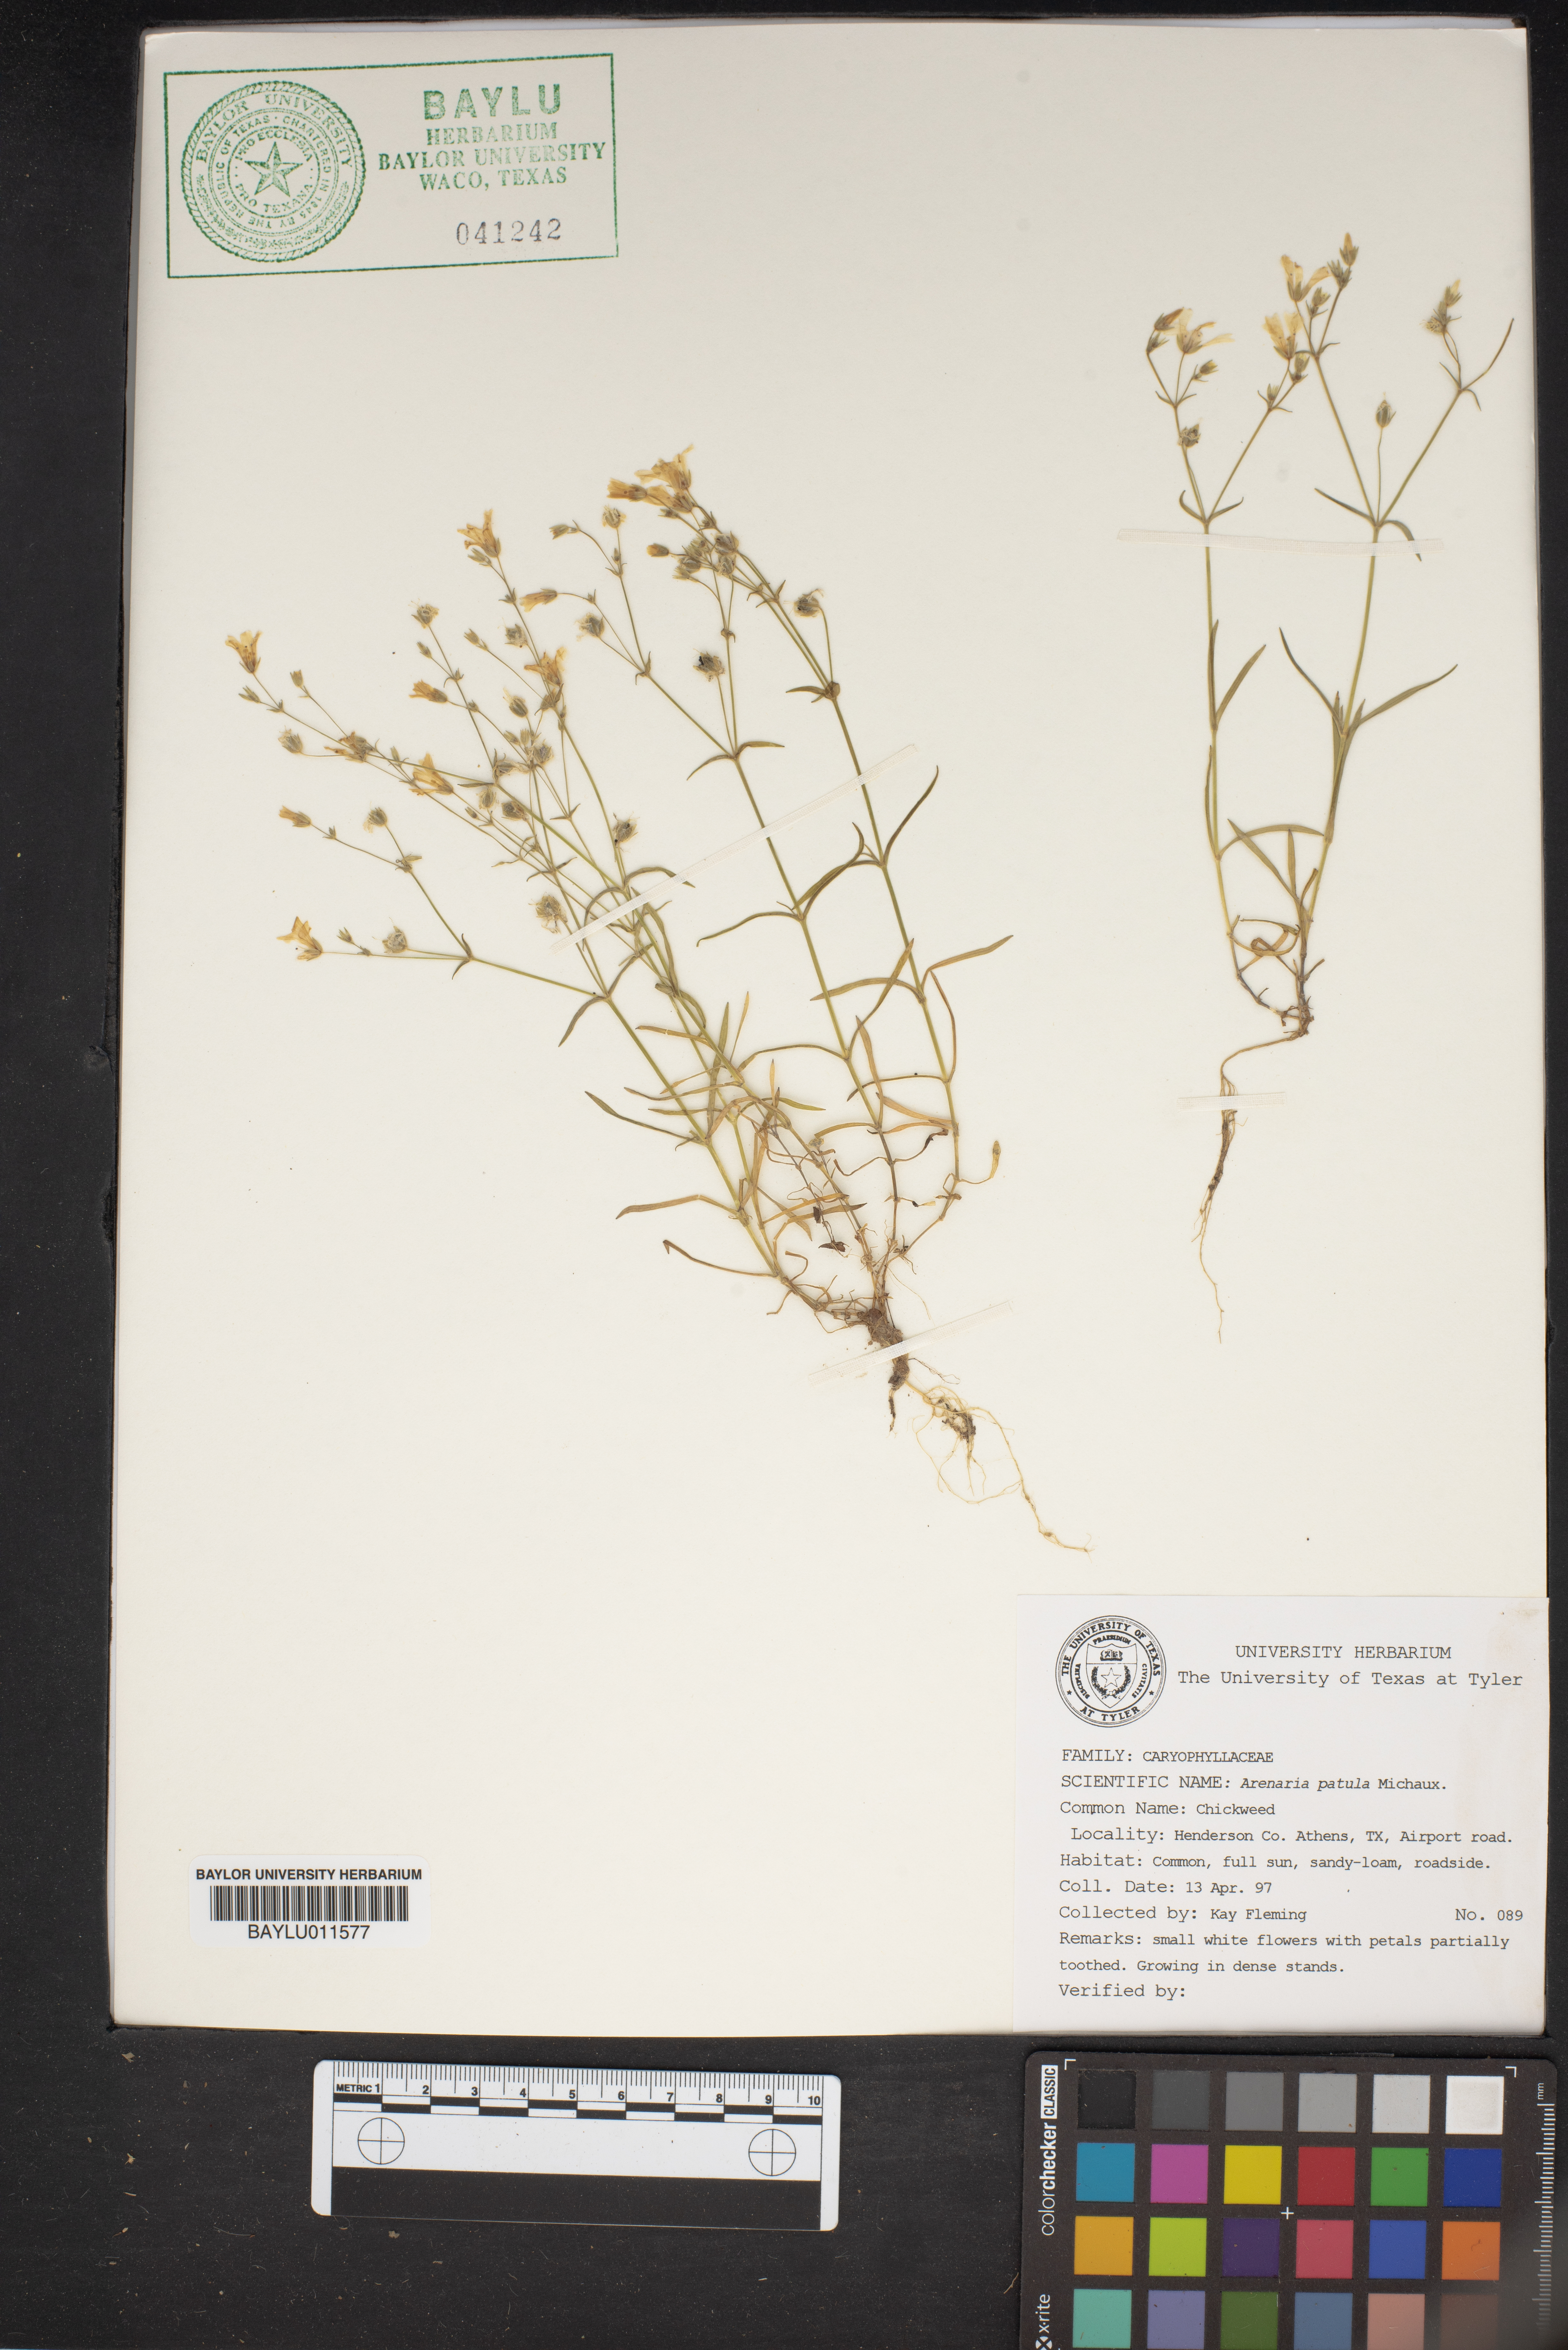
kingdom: Plantae
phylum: Tracheophyta
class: Magnoliopsida
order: Caryophyllales
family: Caryophyllaceae
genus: Mononeuria
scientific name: Mononeuria patula
